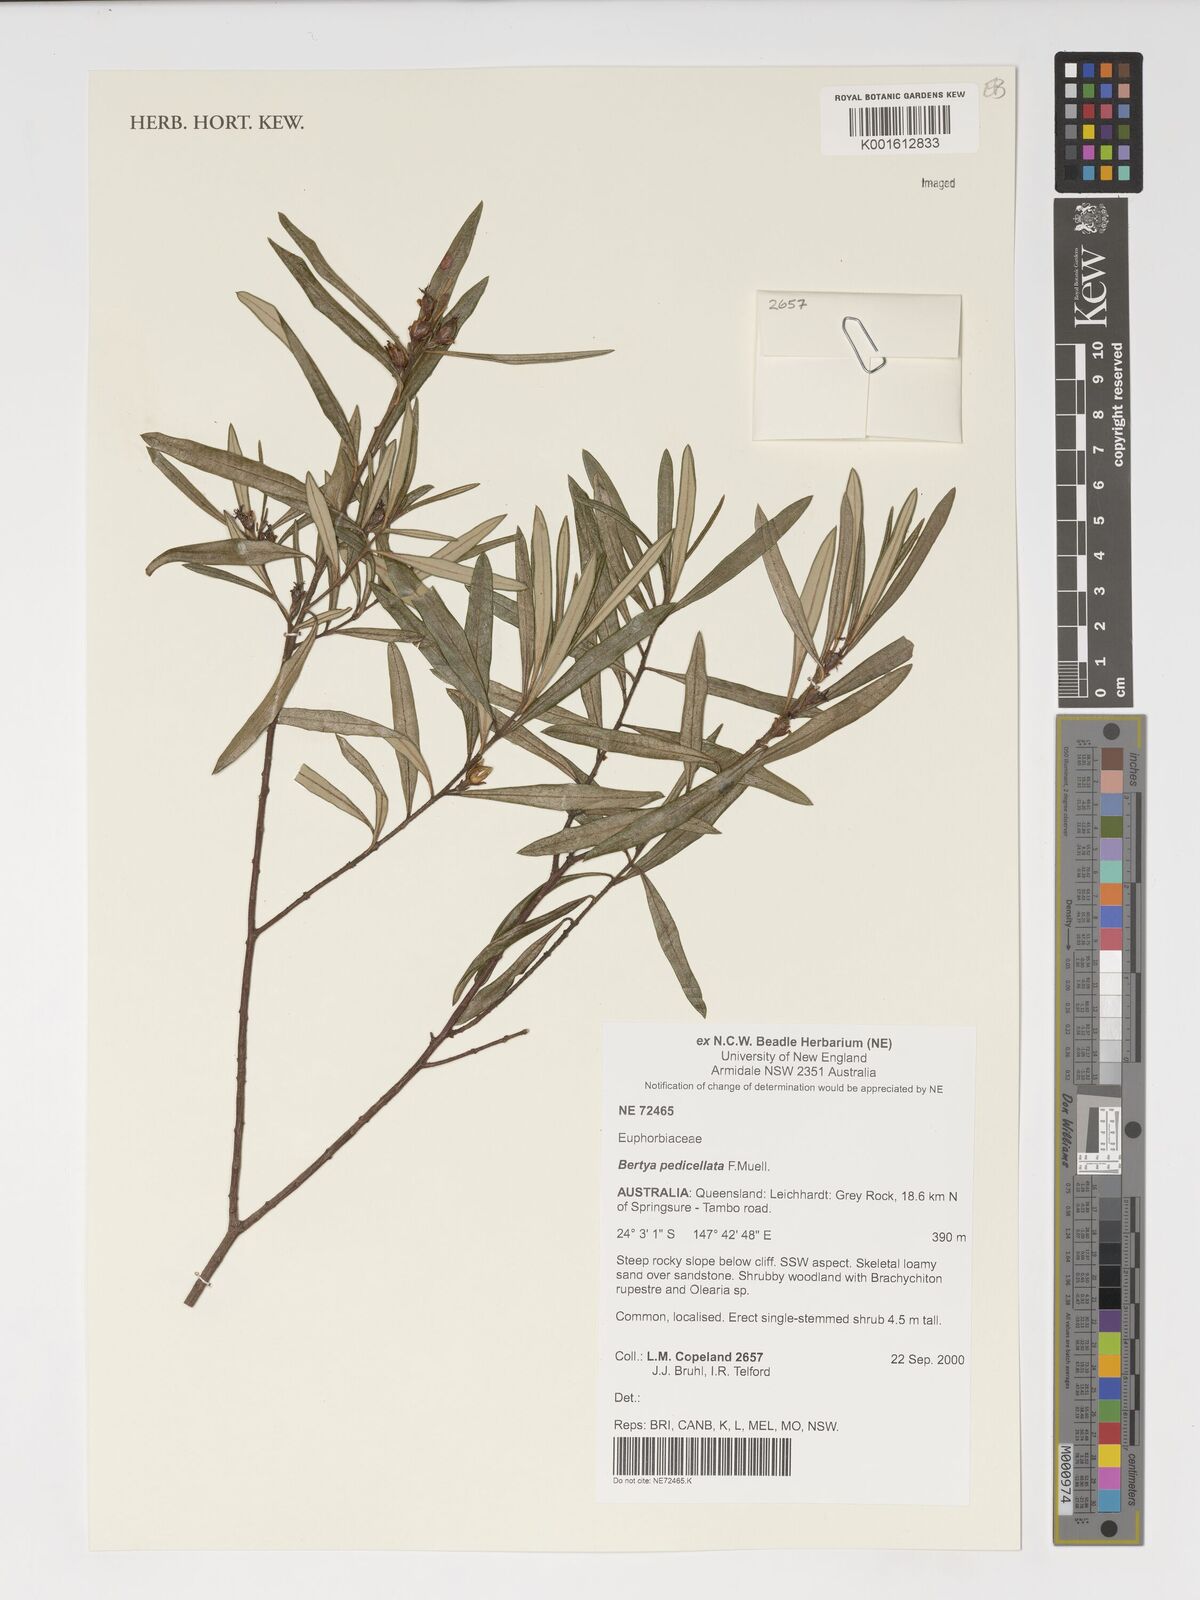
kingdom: Plantae
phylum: Tracheophyta
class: Magnoliopsida
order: Malpighiales
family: Euphorbiaceae
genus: Bertya
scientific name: Bertya pedicellata
